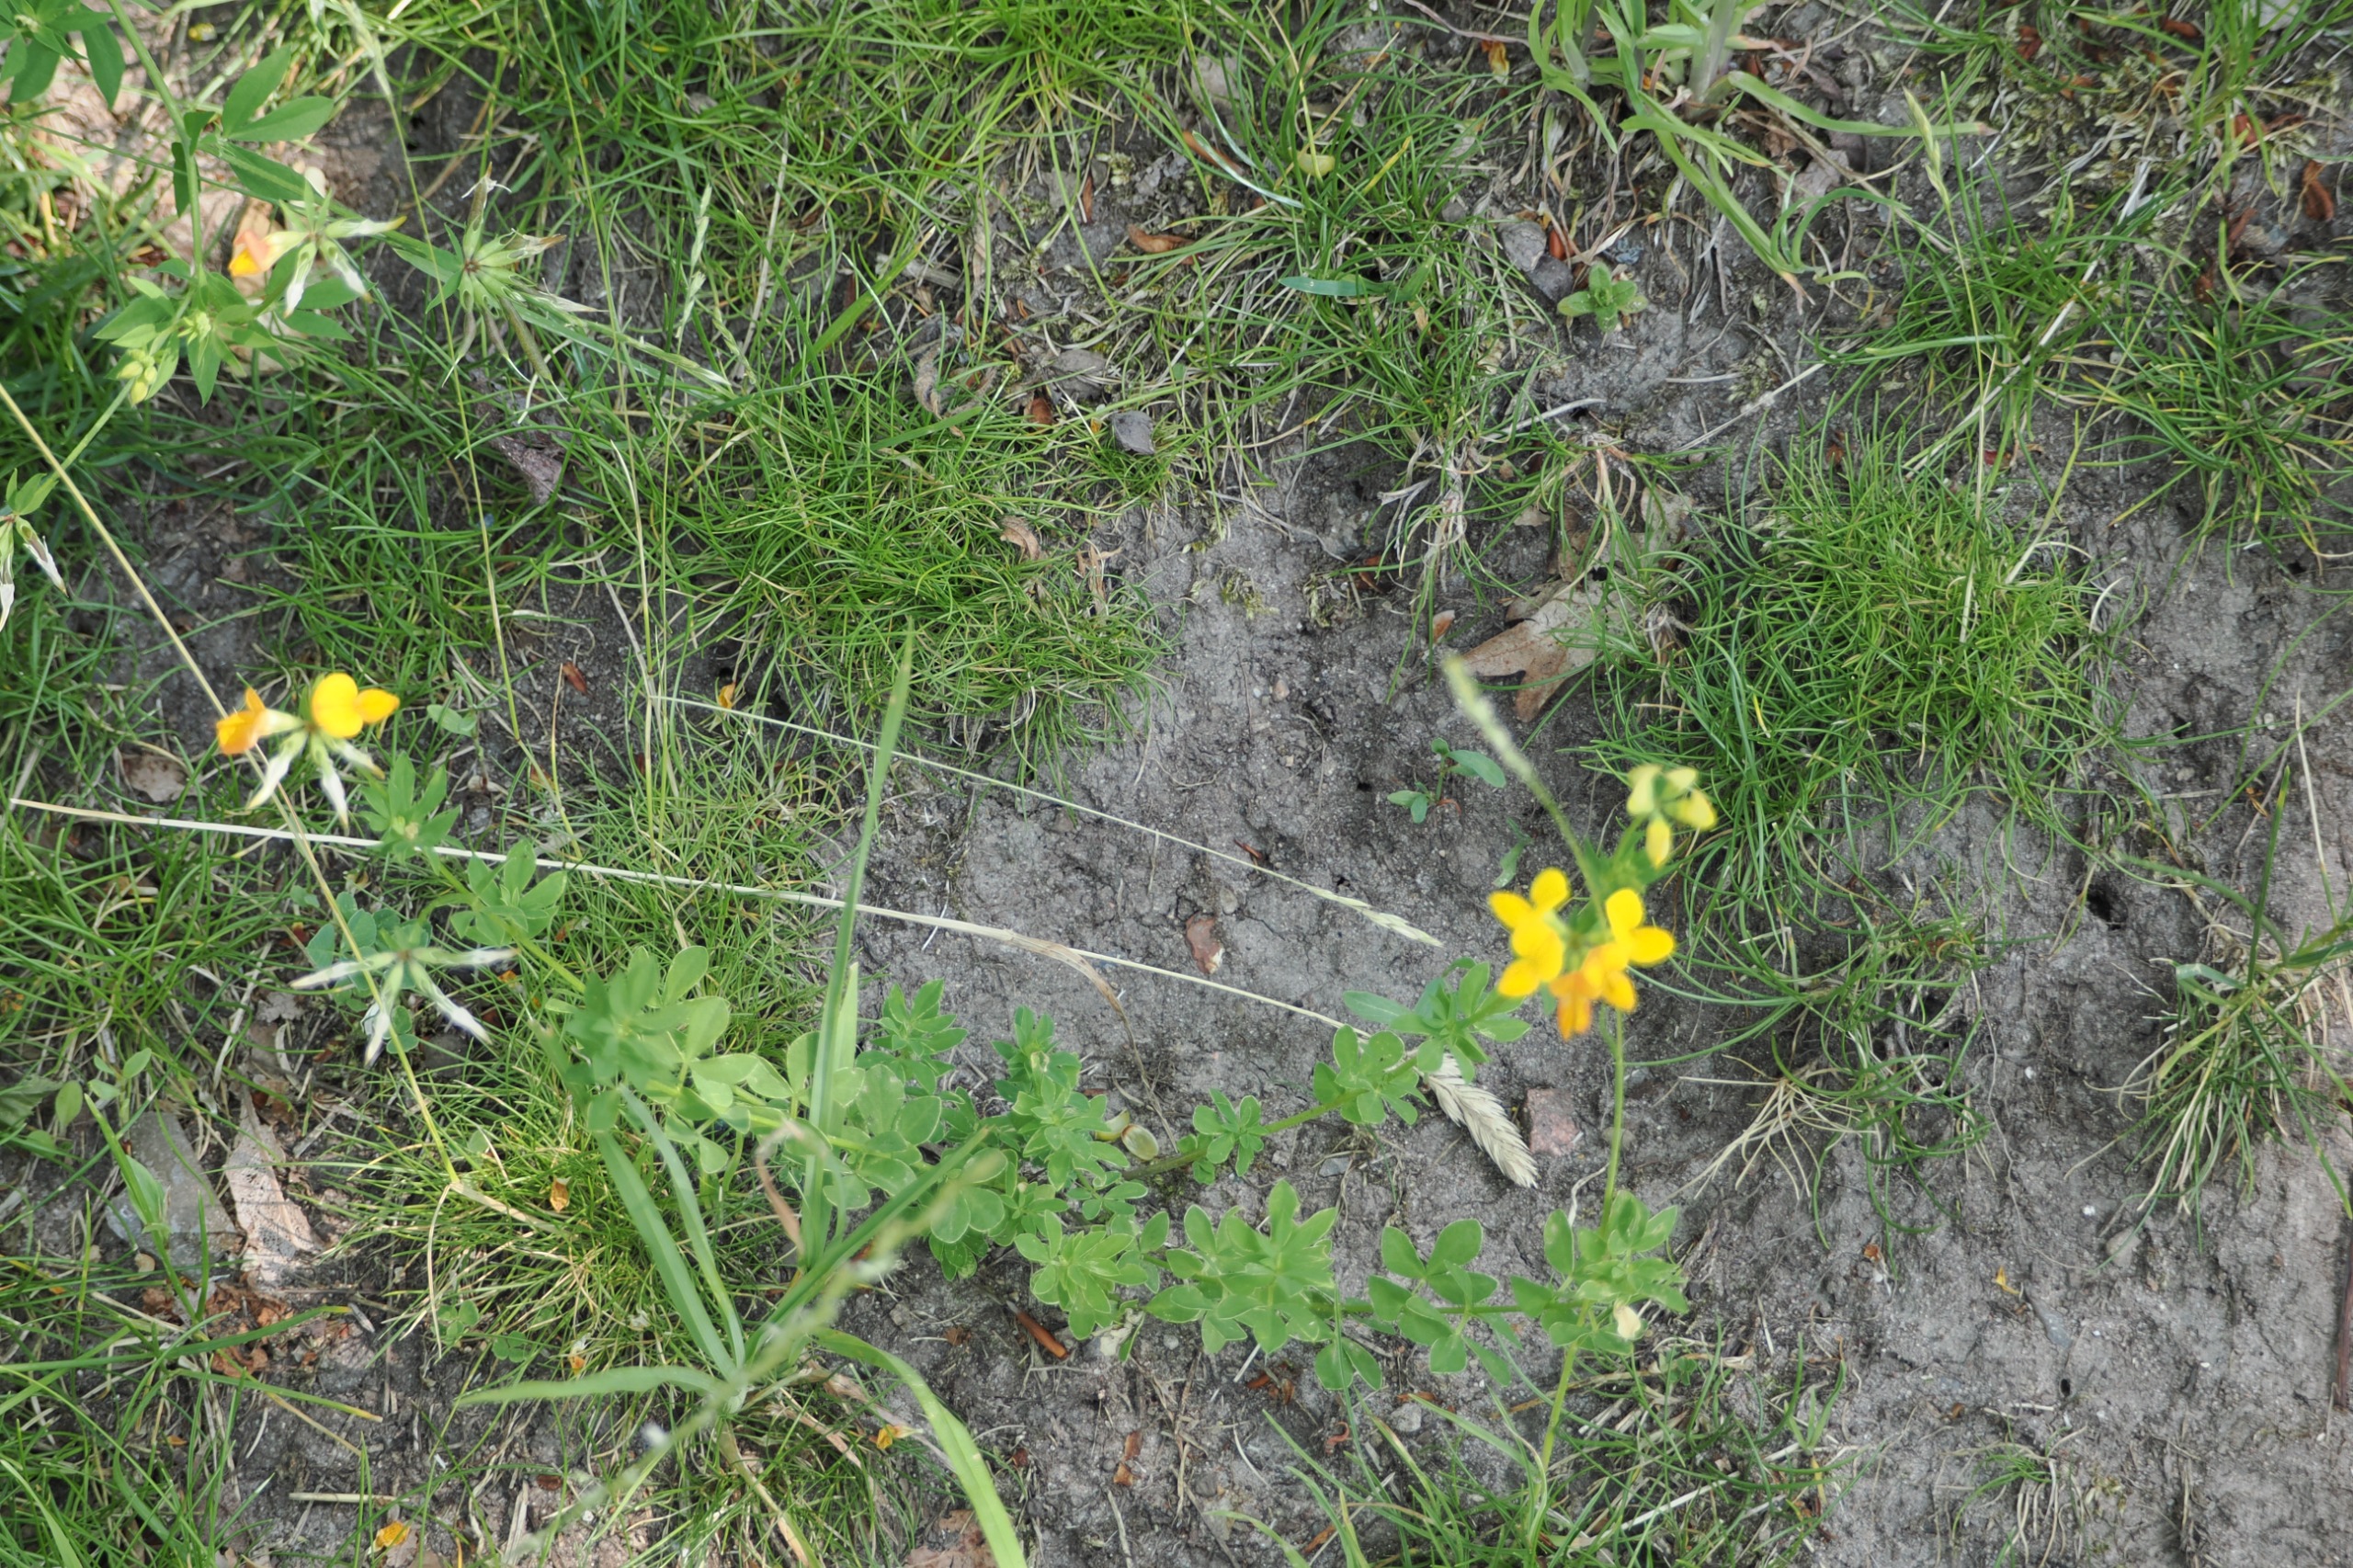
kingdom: Plantae
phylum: Tracheophyta
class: Magnoliopsida
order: Fabales
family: Fabaceae
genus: Lotus
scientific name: Lotus corniculatus
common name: Almindelig kællingetand
